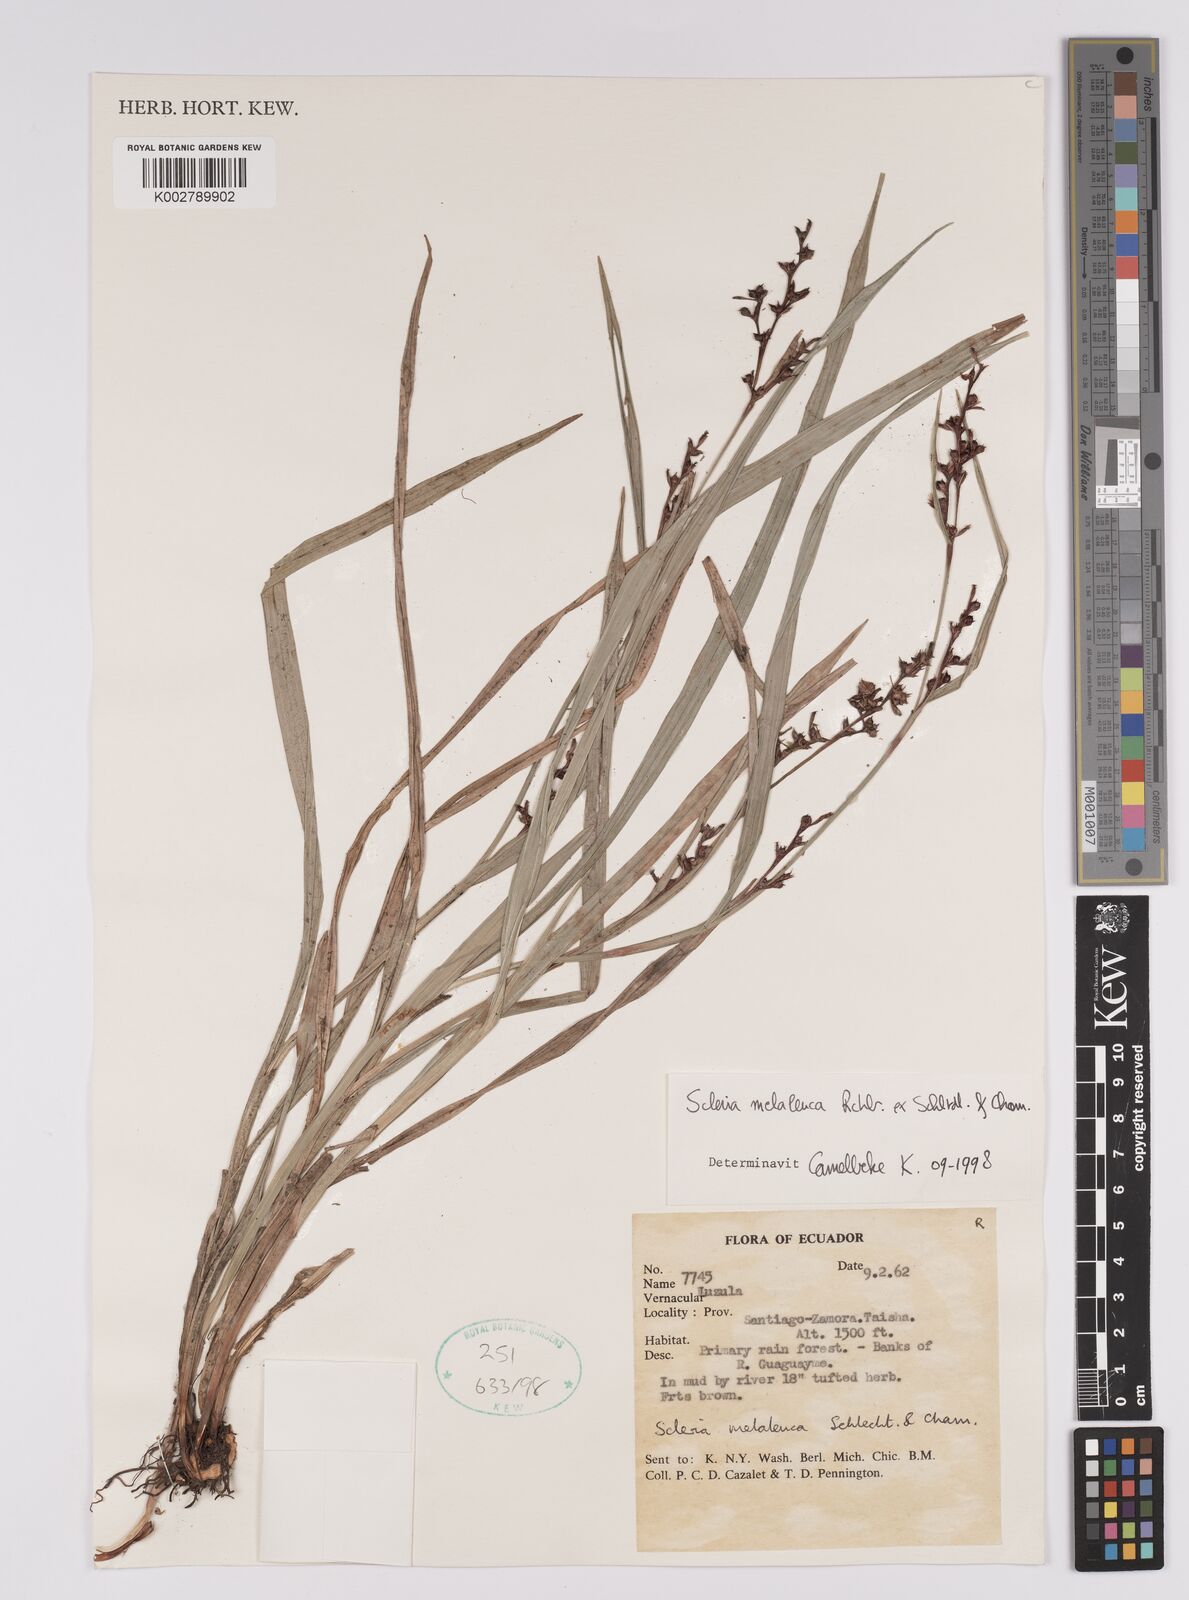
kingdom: Plantae
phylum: Tracheophyta
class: Liliopsida
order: Poales
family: Cyperaceae
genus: Scleria
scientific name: Scleria gaertneri
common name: Cortadera blanca
